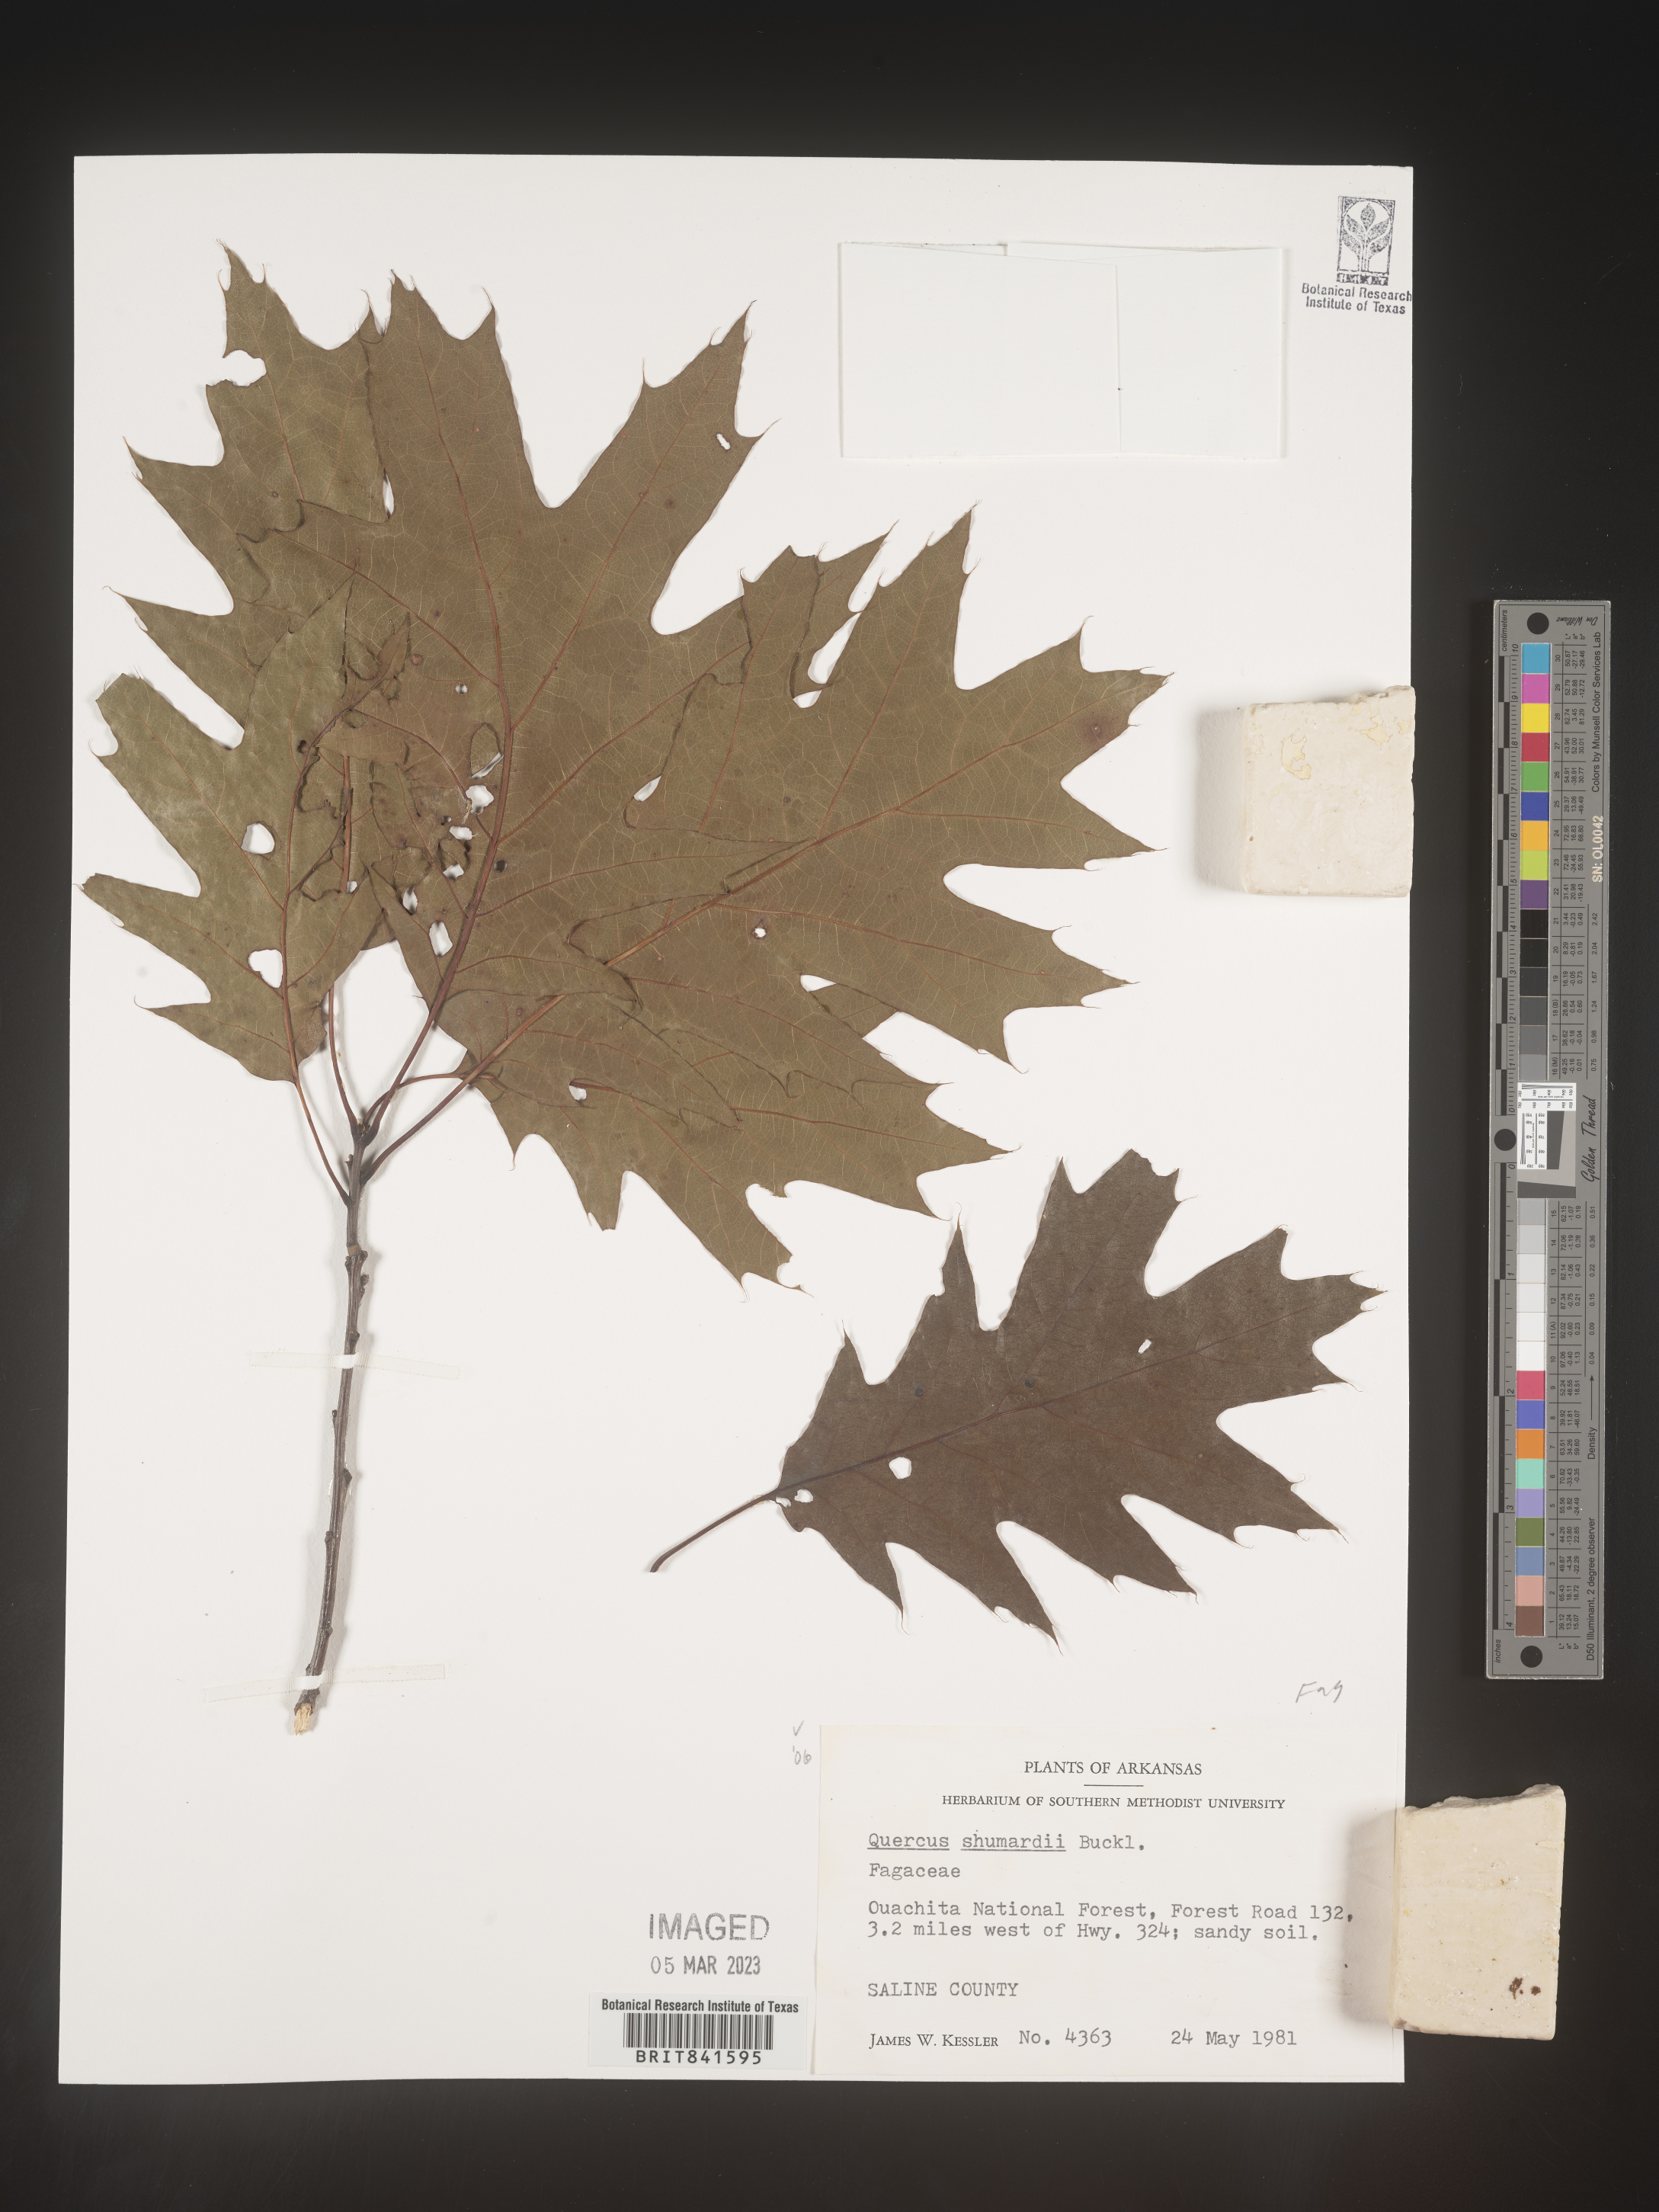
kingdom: Plantae
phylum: Tracheophyta
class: Magnoliopsida
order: Fagales
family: Fagaceae
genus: Quercus
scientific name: Quercus shumardii
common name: Shumard oak
